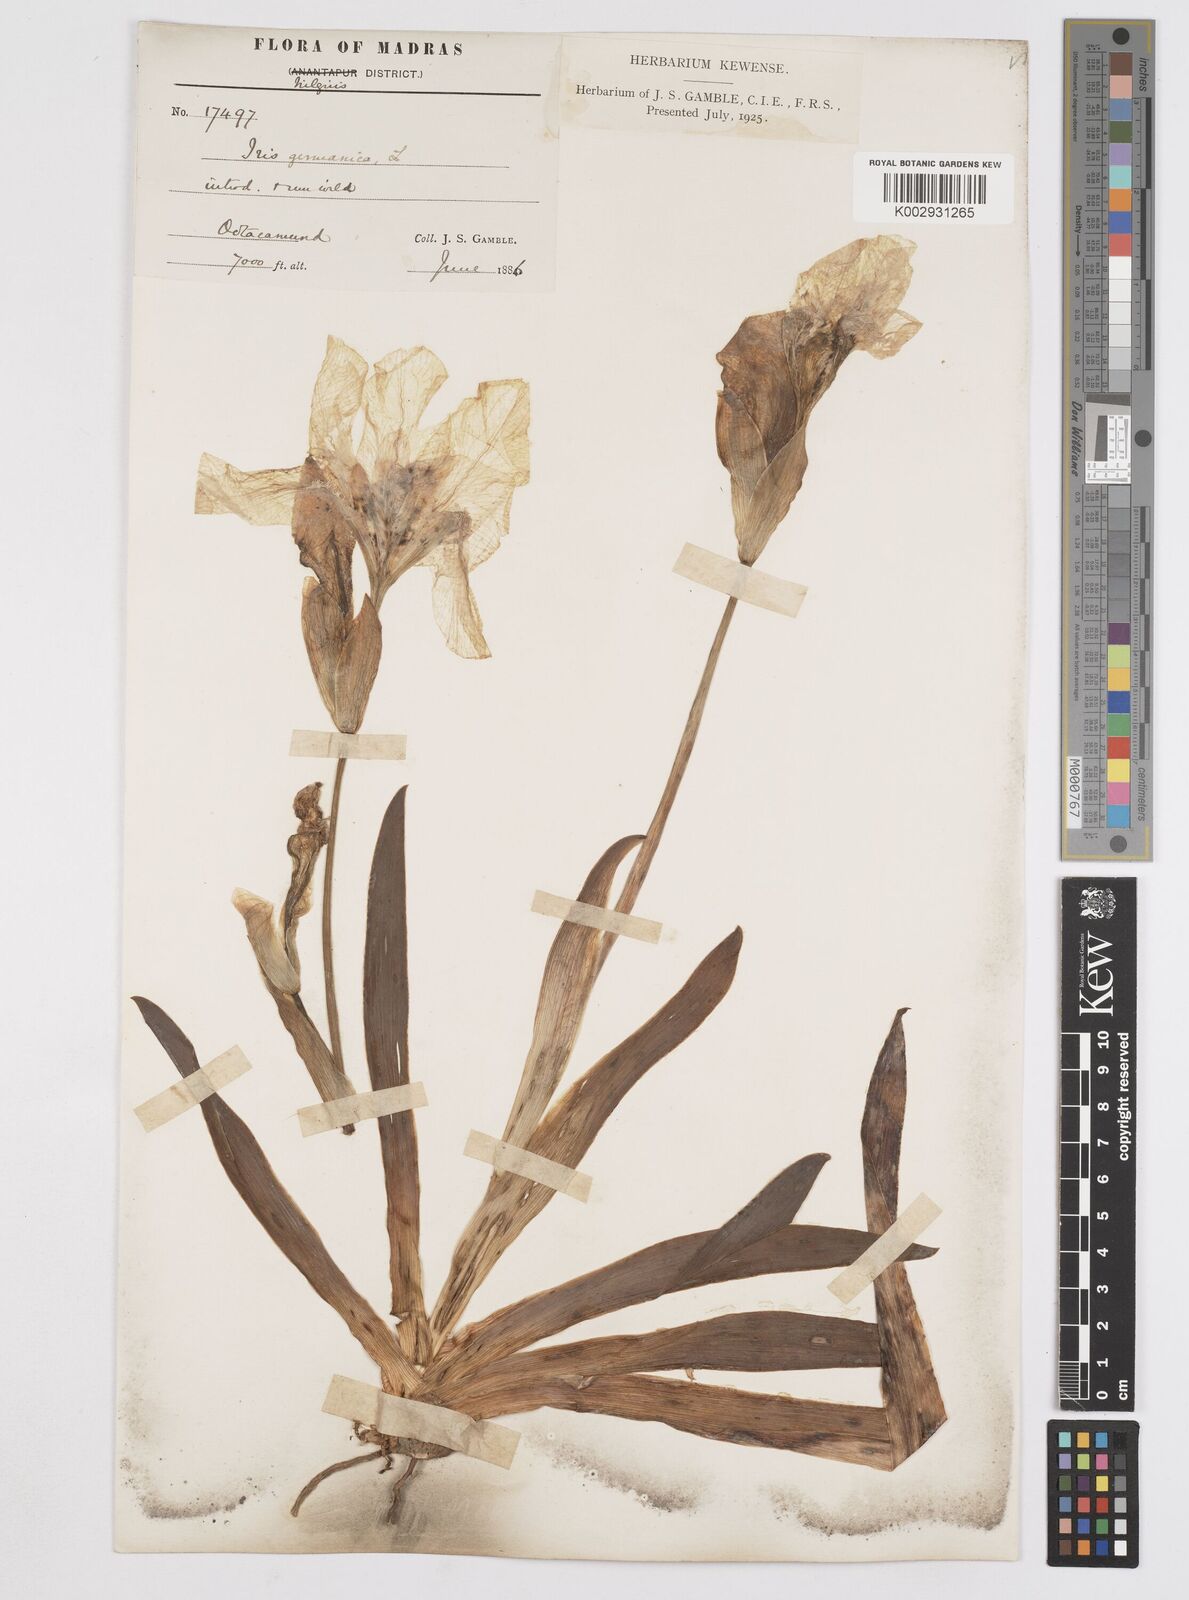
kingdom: Plantae
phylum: Tracheophyta
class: Liliopsida
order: Asparagales
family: Iridaceae
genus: Iris
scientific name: Iris germanica
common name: German iris
